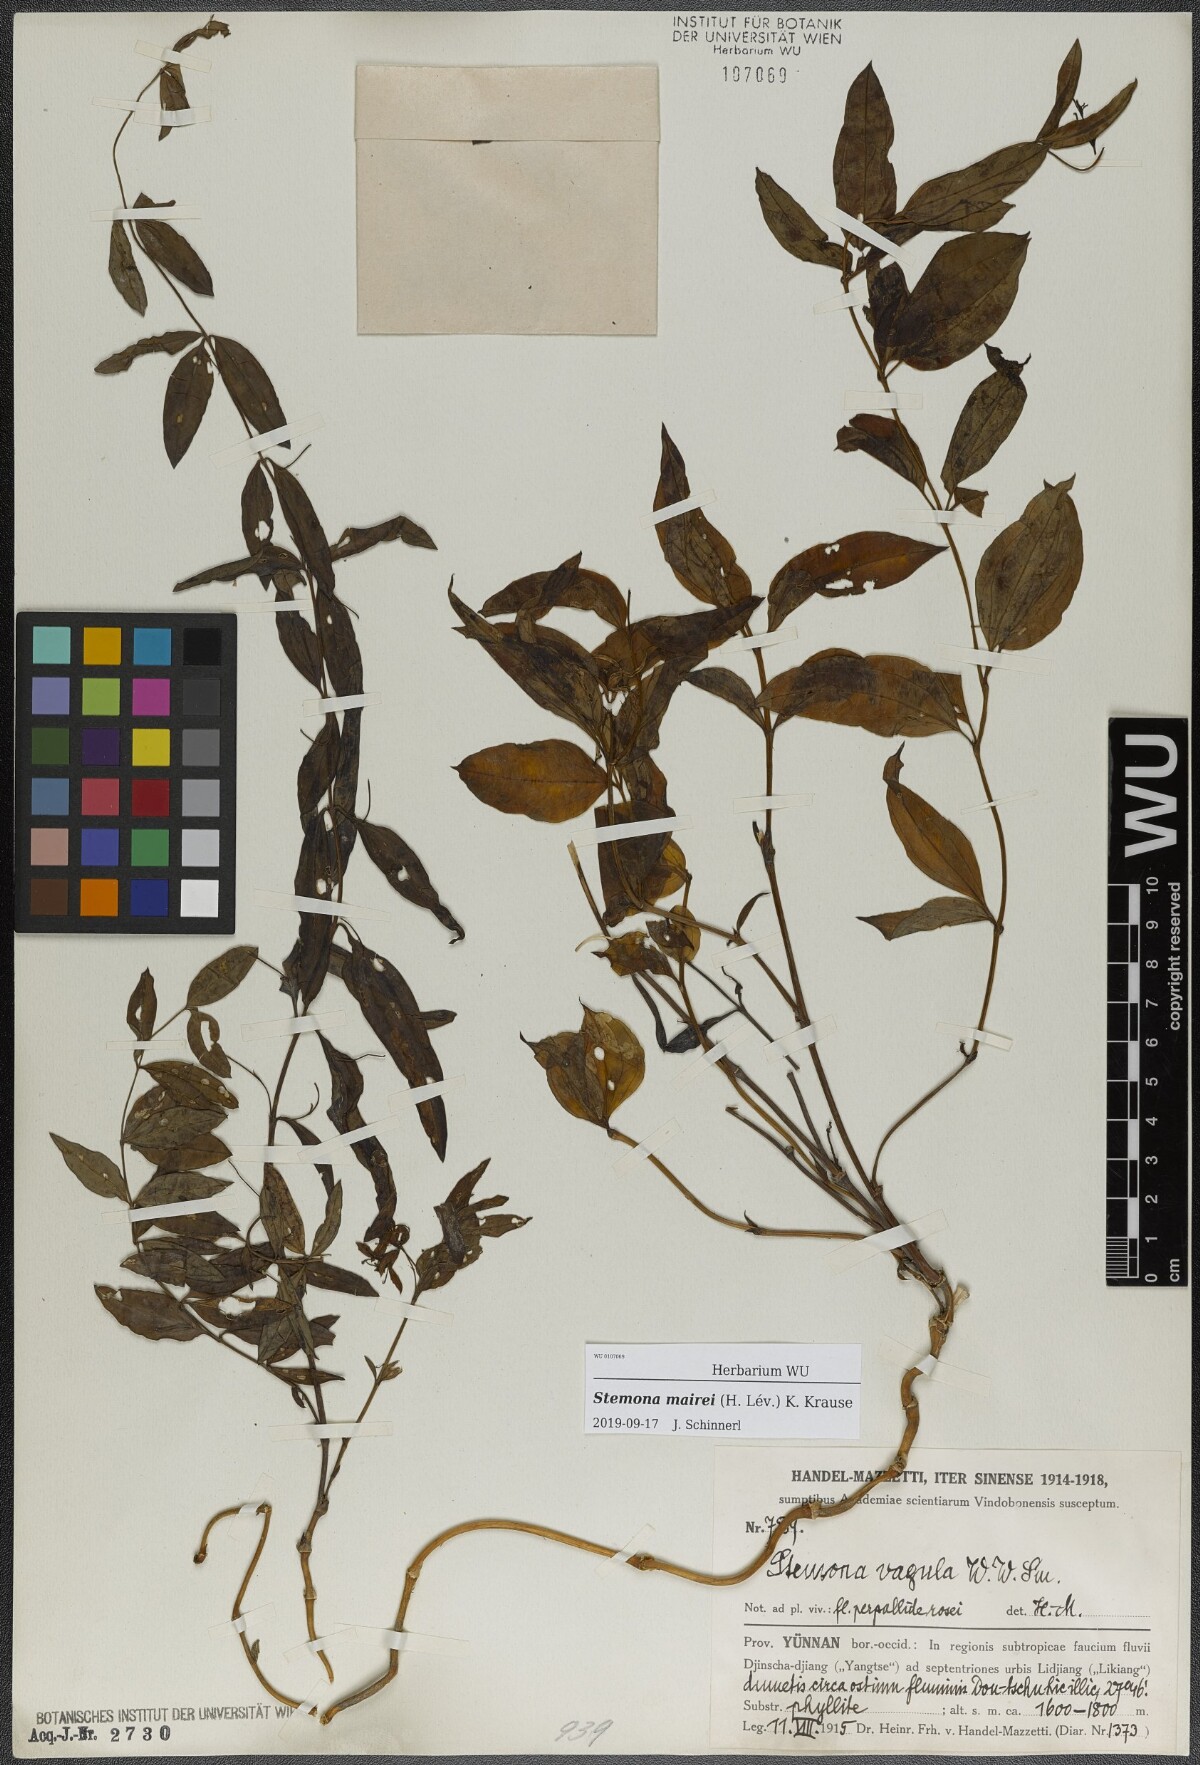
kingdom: Plantae
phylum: Tracheophyta
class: Liliopsida
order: Pandanales
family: Stemonaceae
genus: Stemona
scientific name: Stemona mairei
